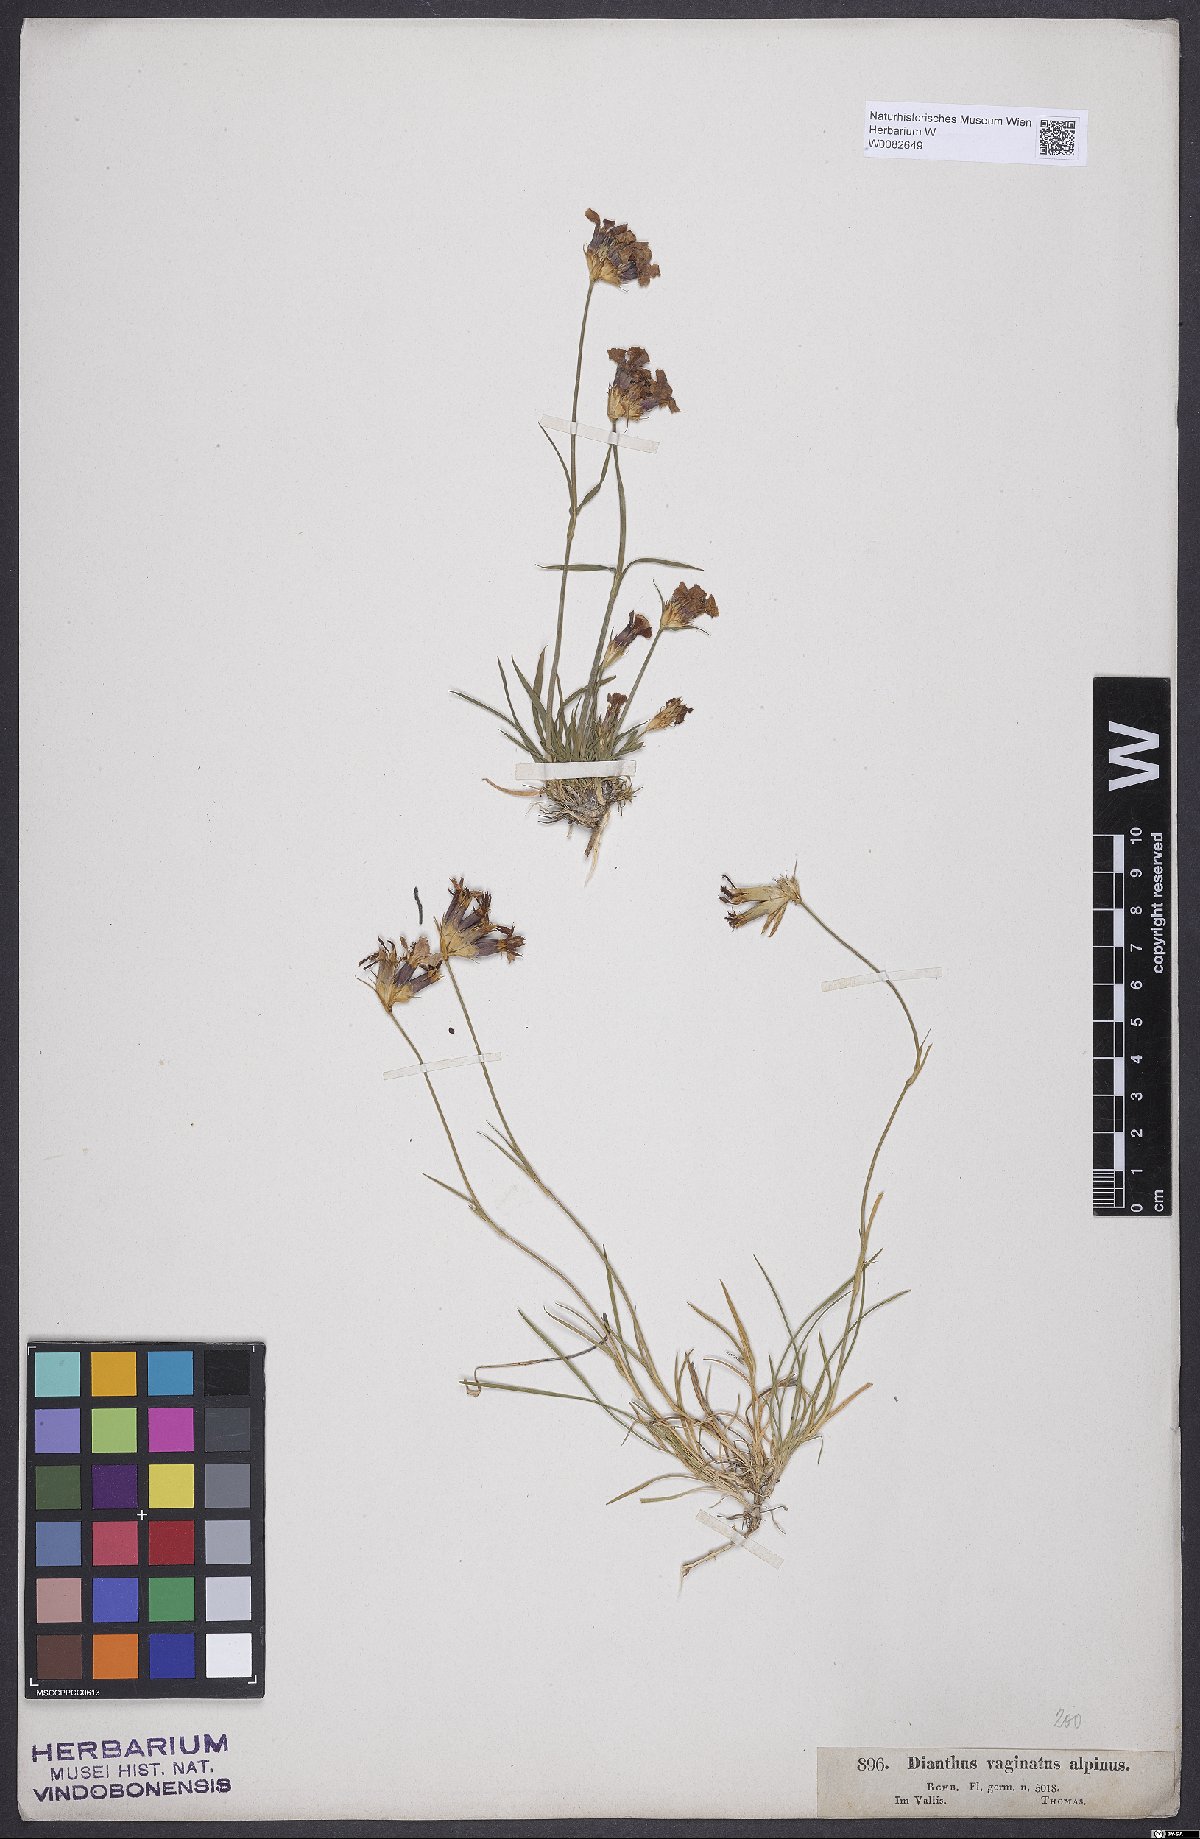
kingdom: Plantae
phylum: Tracheophyta
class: Magnoliopsida
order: Caryophyllales
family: Caryophyllaceae
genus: Dianthus
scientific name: Dianthus carthusianorum
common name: Carthusian pink
